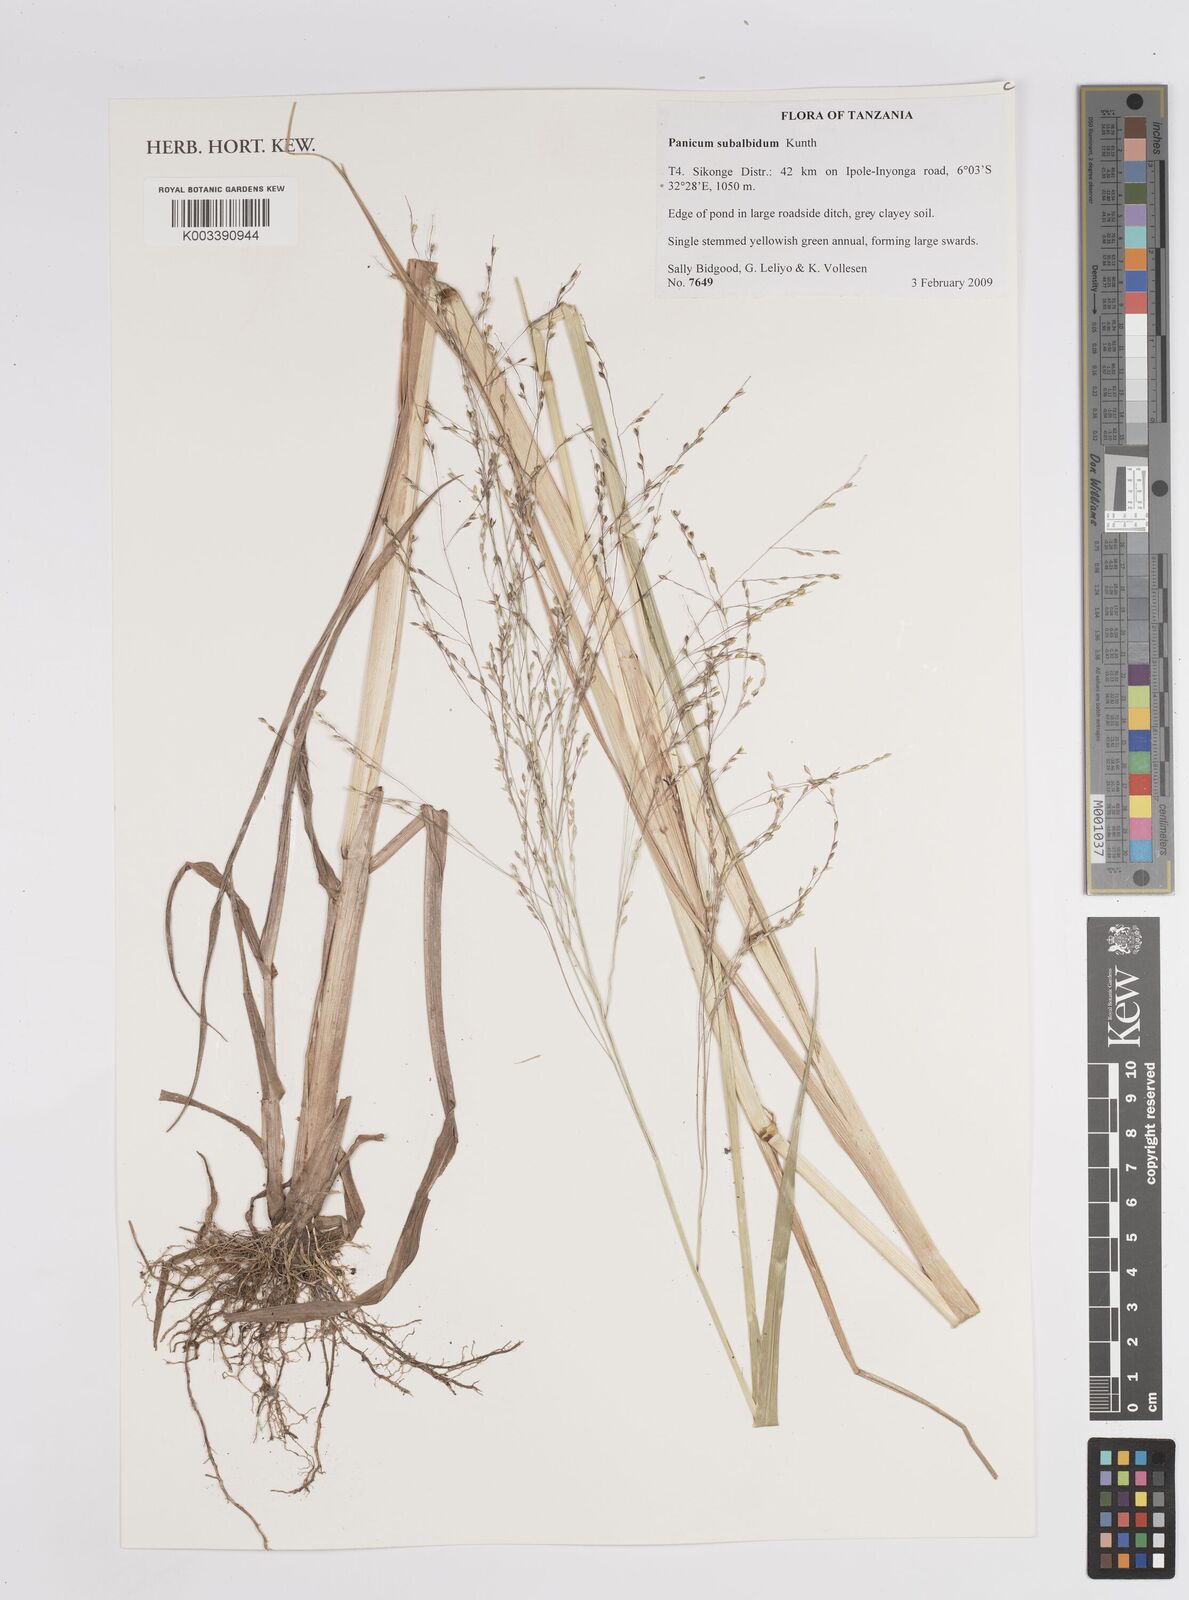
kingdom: Plantae
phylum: Tracheophyta
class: Liliopsida
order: Poales
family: Poaceae
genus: Panicum
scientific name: Panicum subalbidum
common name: Elbow buffalo grass
